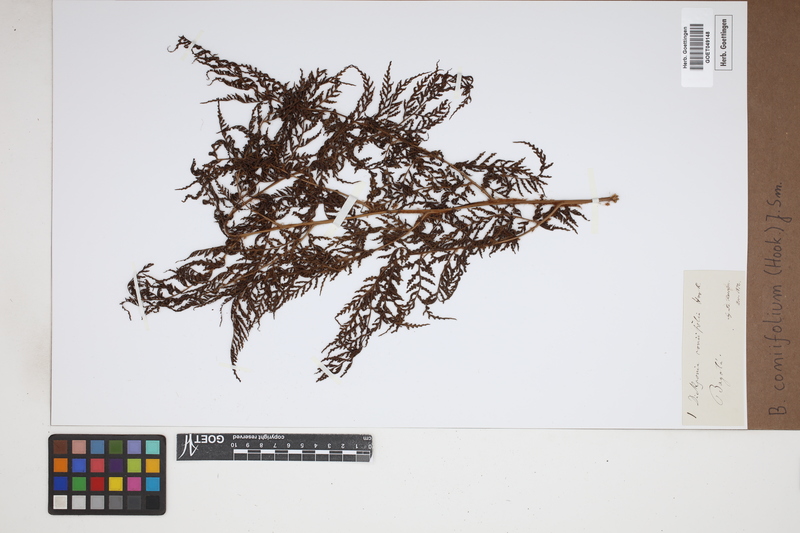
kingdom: Plantae
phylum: Tracheophyta
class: Polypodiopsida
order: Cyatheales
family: Culcitaceae
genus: Culcita
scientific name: Culcita coniifolia
